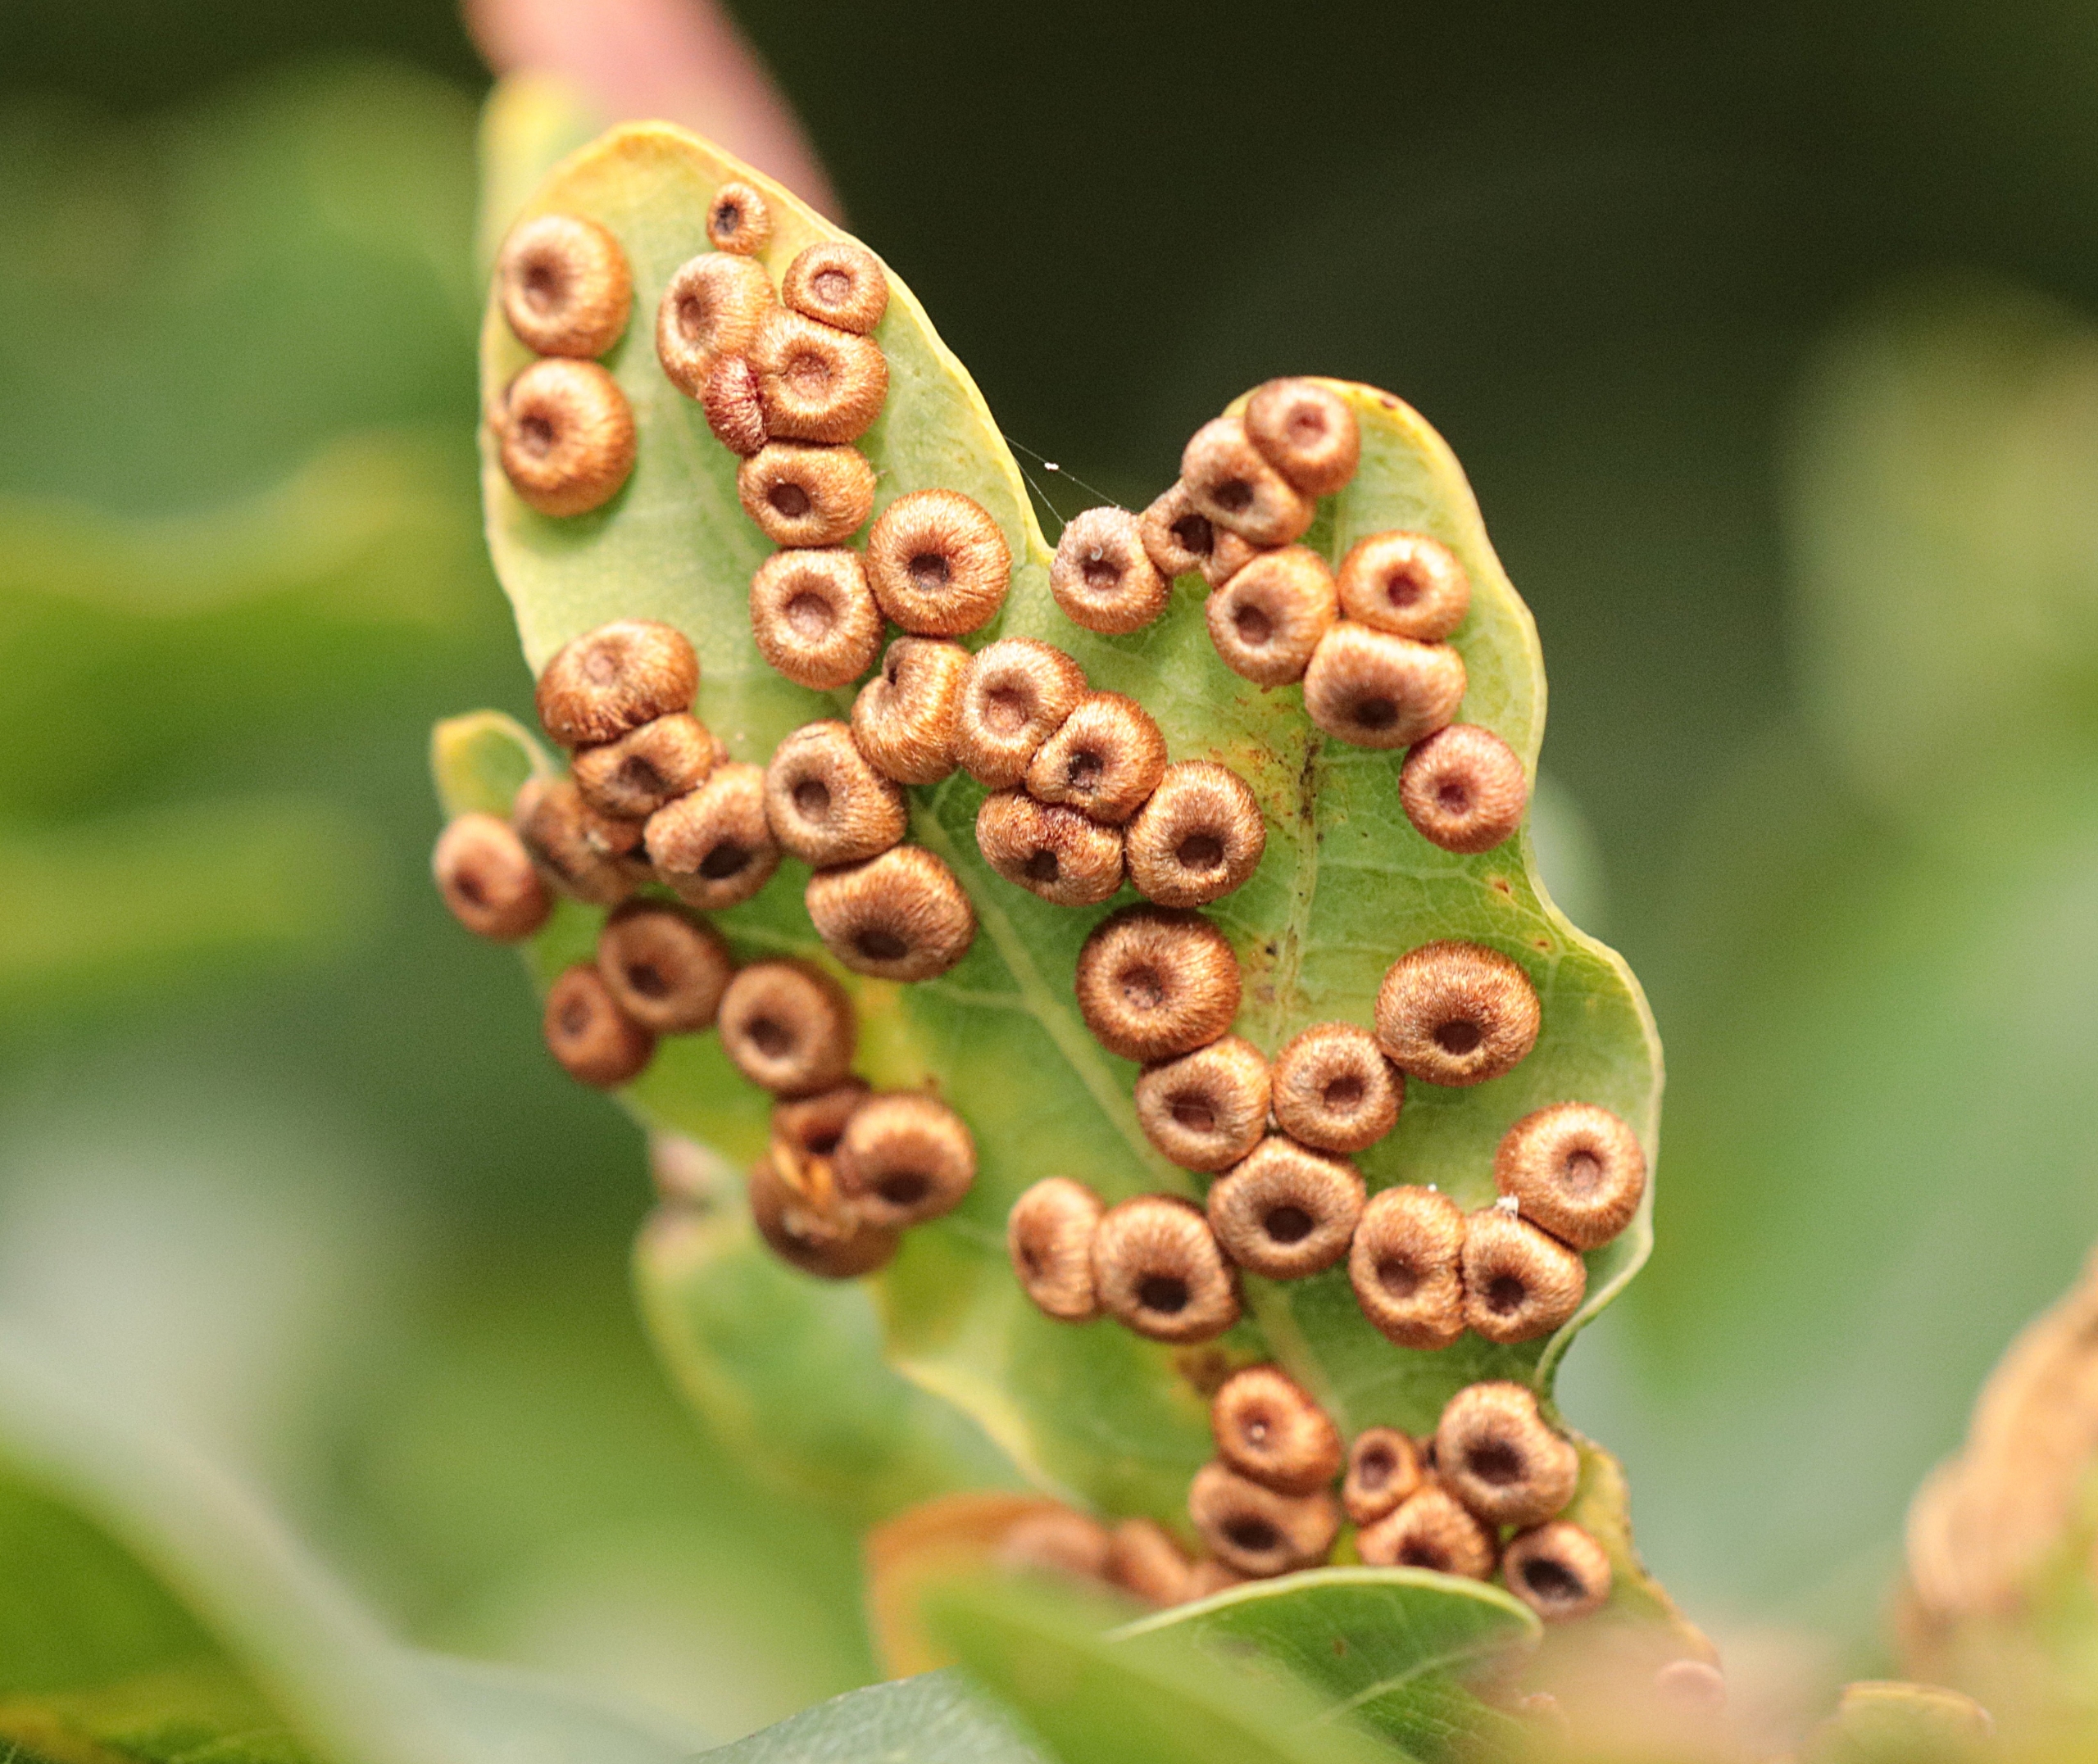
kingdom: Animalia
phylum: Arthropoda
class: Insecta
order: Hymenoptera
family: Cynipidae
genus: Neuroterus
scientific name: Neuroterus numismalis
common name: Knapgalhveps
